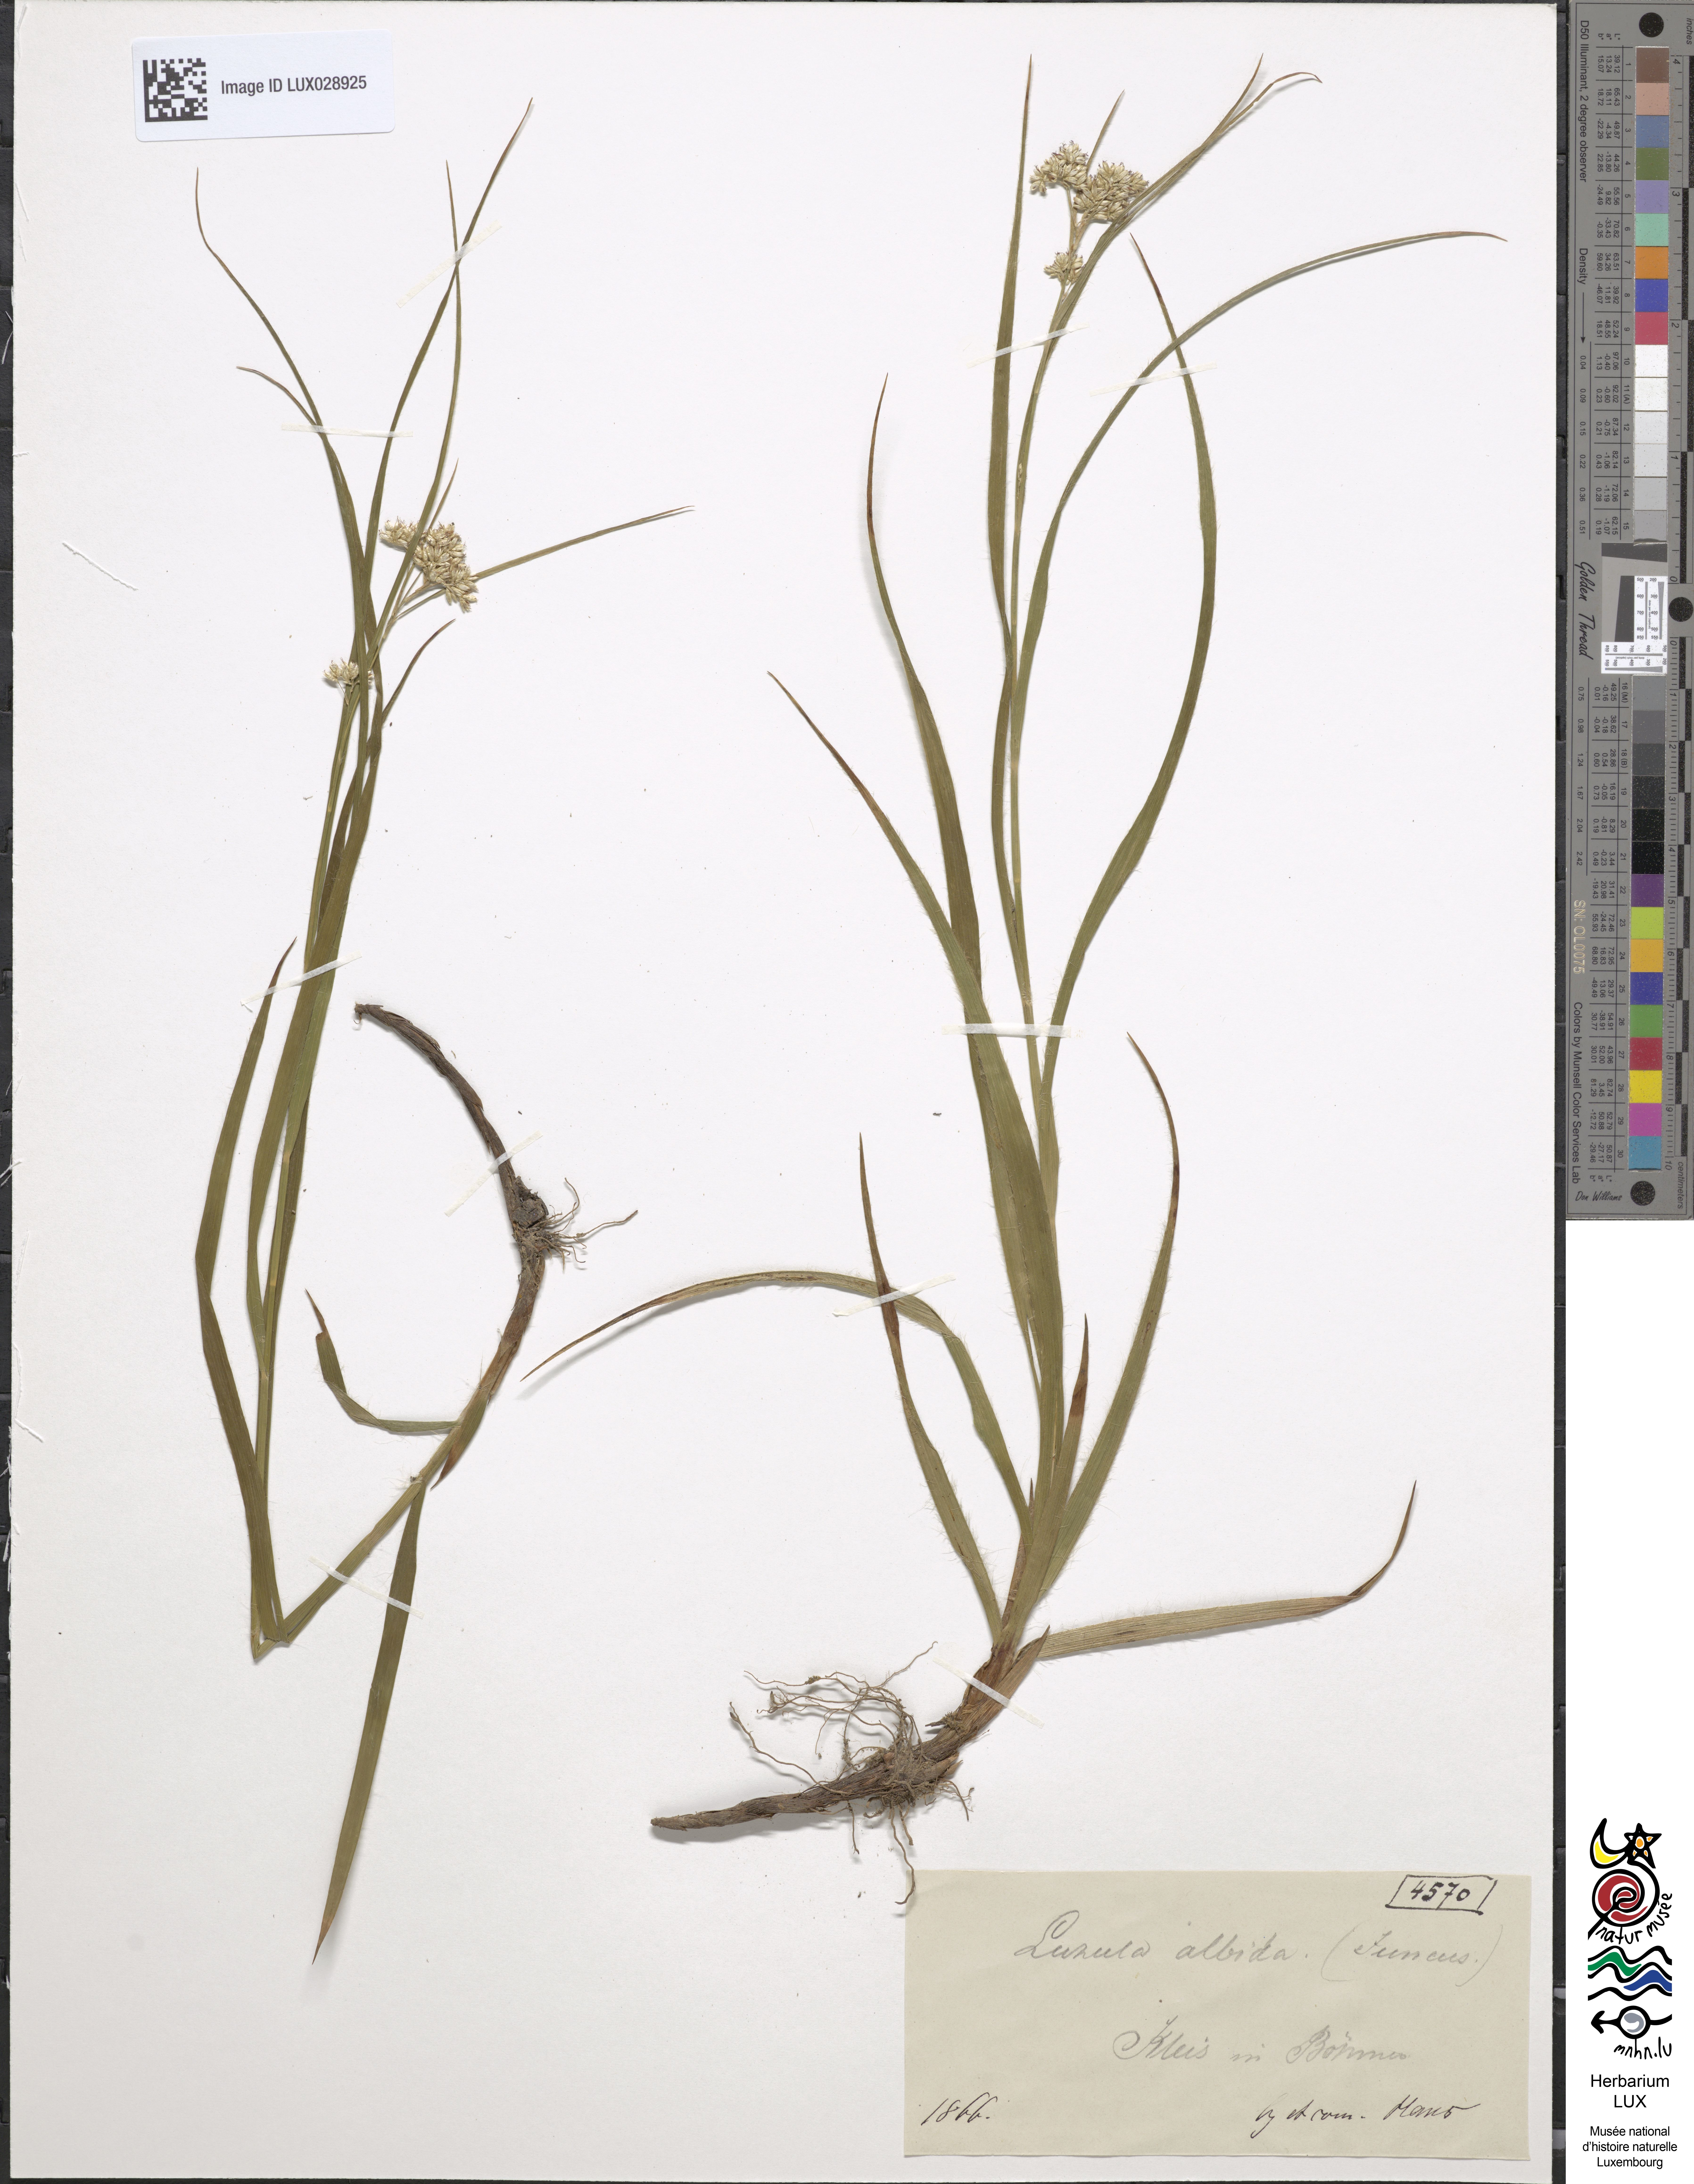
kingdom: Plantae
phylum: Tracheophyta
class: Liliopsida
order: Poales
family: Juncaceae
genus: Luzula
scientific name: Luzula luzuloides
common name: White wood-rush
